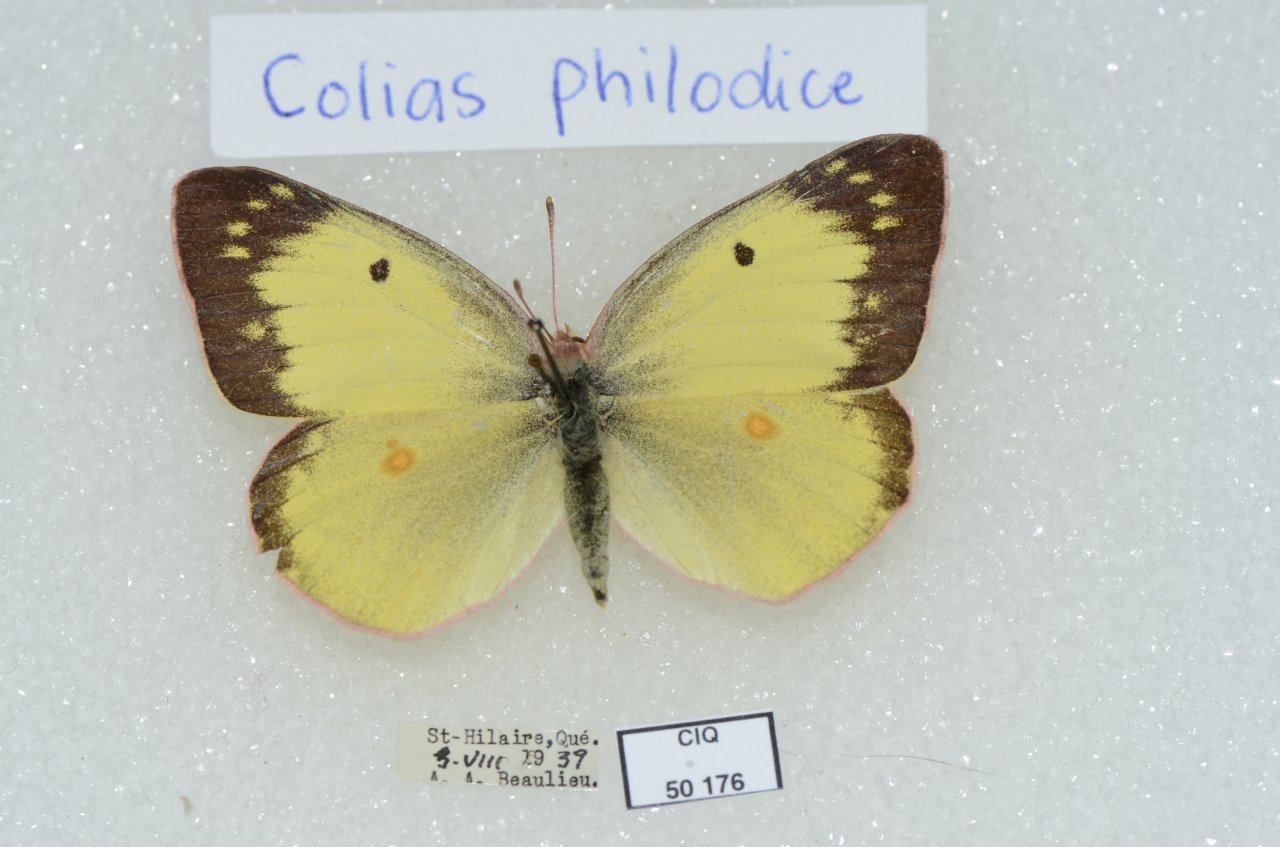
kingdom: Animalia
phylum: Arthropoda
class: Insecta
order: Lepidoptera
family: Pieridae
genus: Colias
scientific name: Colias philodice
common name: Clouded Sulphur
